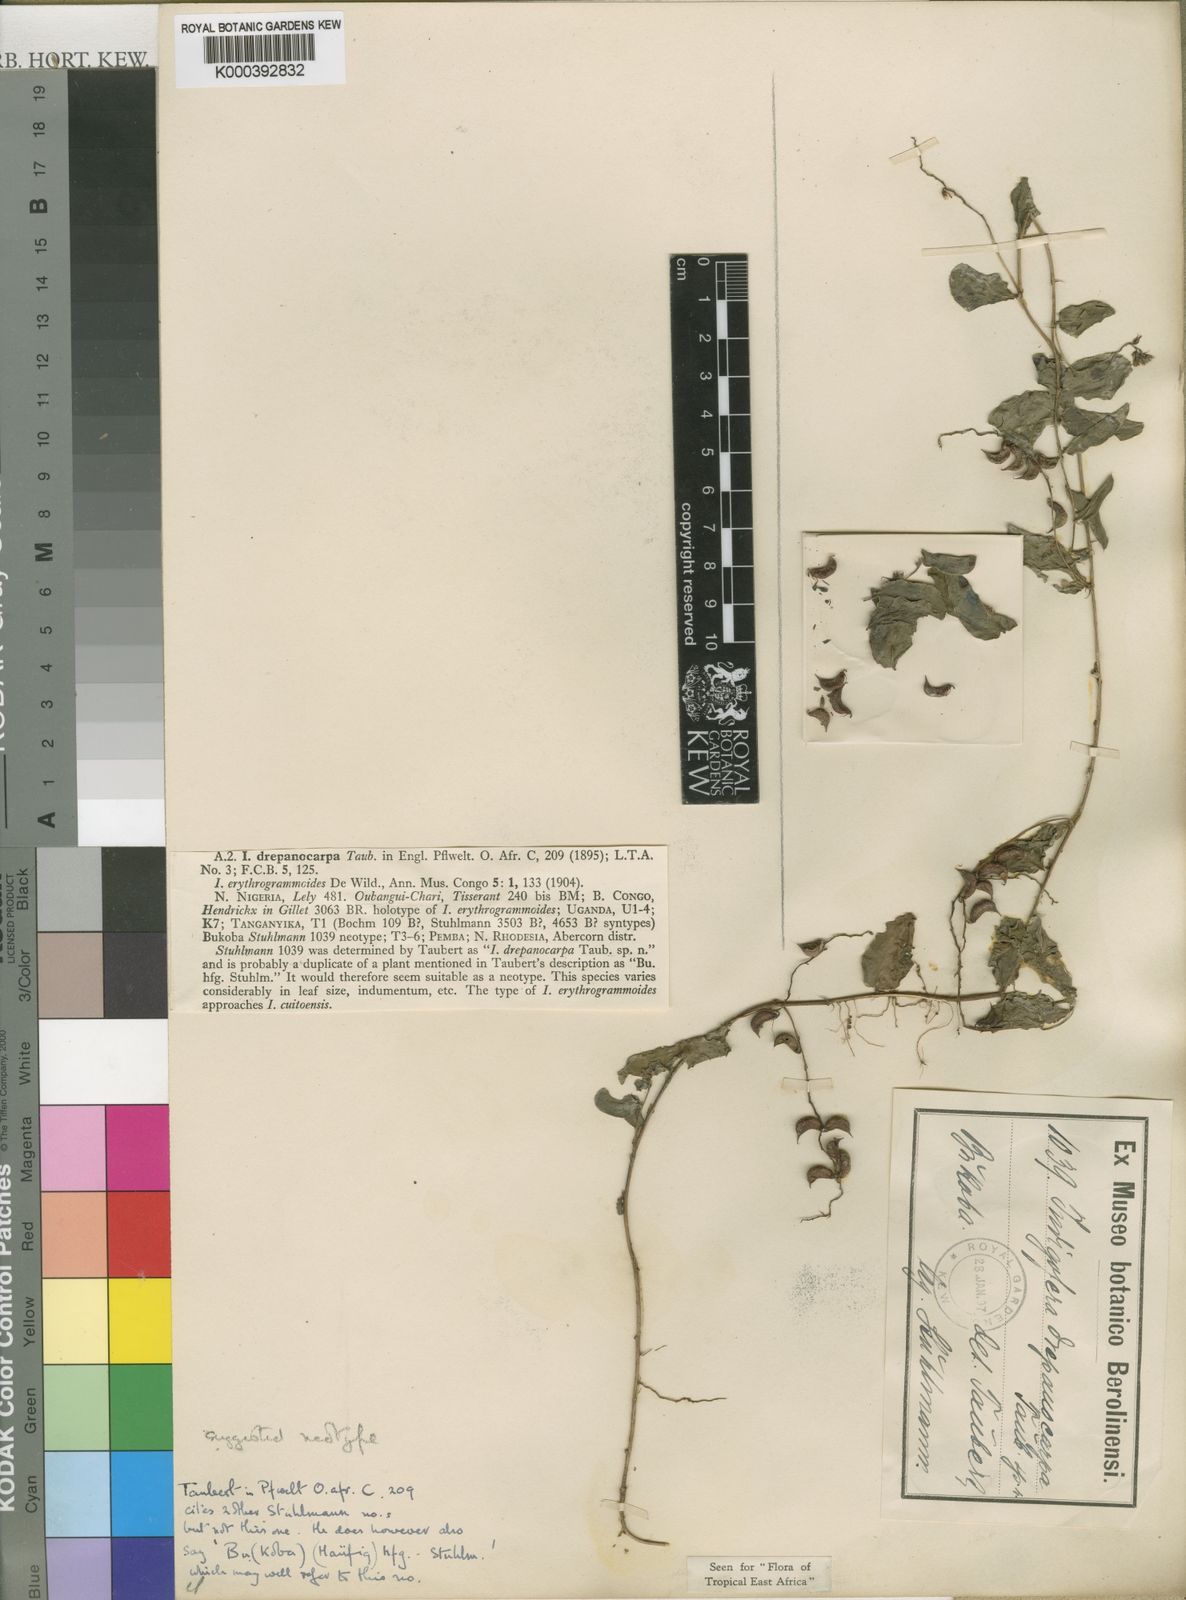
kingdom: Plantae
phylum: Tracheophyta
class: Magnoliopsida
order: Fabales
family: Fabaceae
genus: Indigofera
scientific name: Indigofera drepanocarpa
